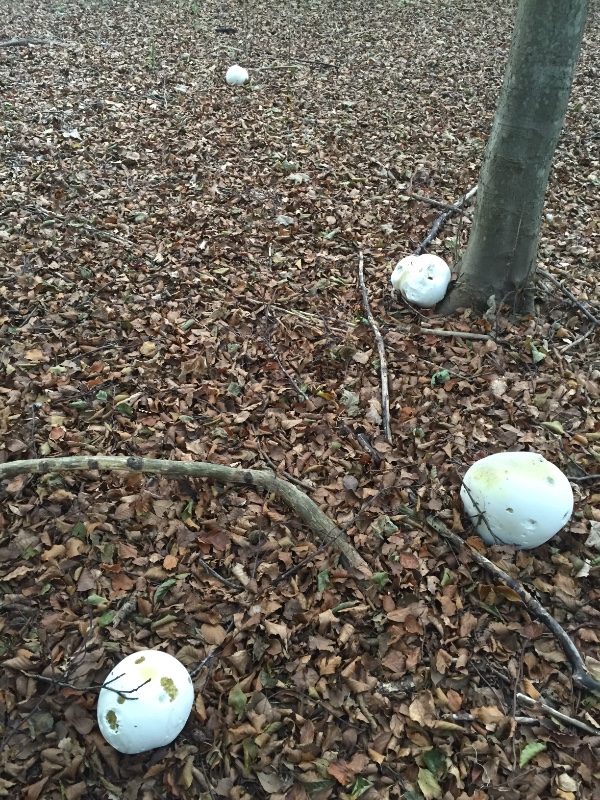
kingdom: Fungi
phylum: Basidiomycota
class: Agaricomycetes
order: Agaricales
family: Lycoperdaceae
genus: Calvatia
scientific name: Calvatia gigantea
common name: kæmpestøvbold
